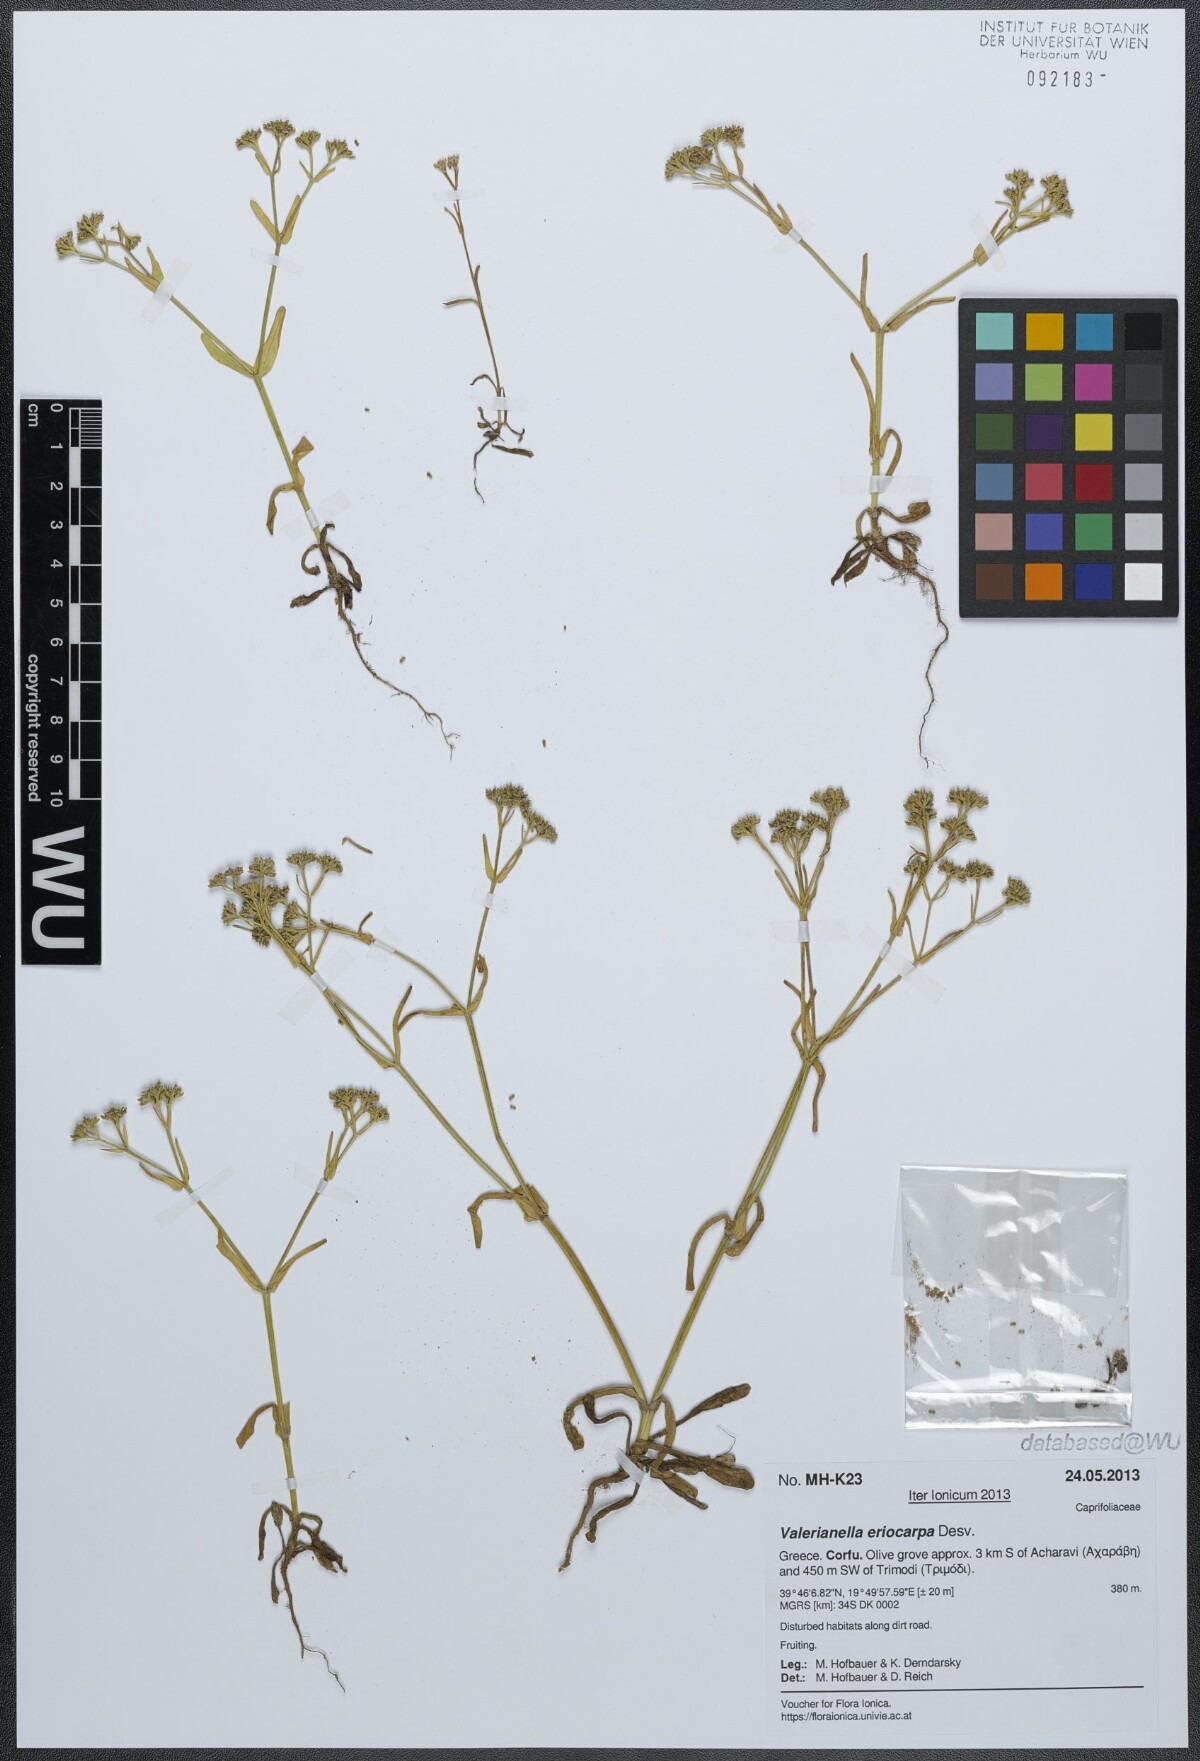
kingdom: Plantae
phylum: Tracheophyta
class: Magnoliopsida
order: Dipsacales
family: Caprifoliaceae
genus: Valerianella
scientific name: Valerianella eriocarpa
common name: Hairy-fruited cornsalad
